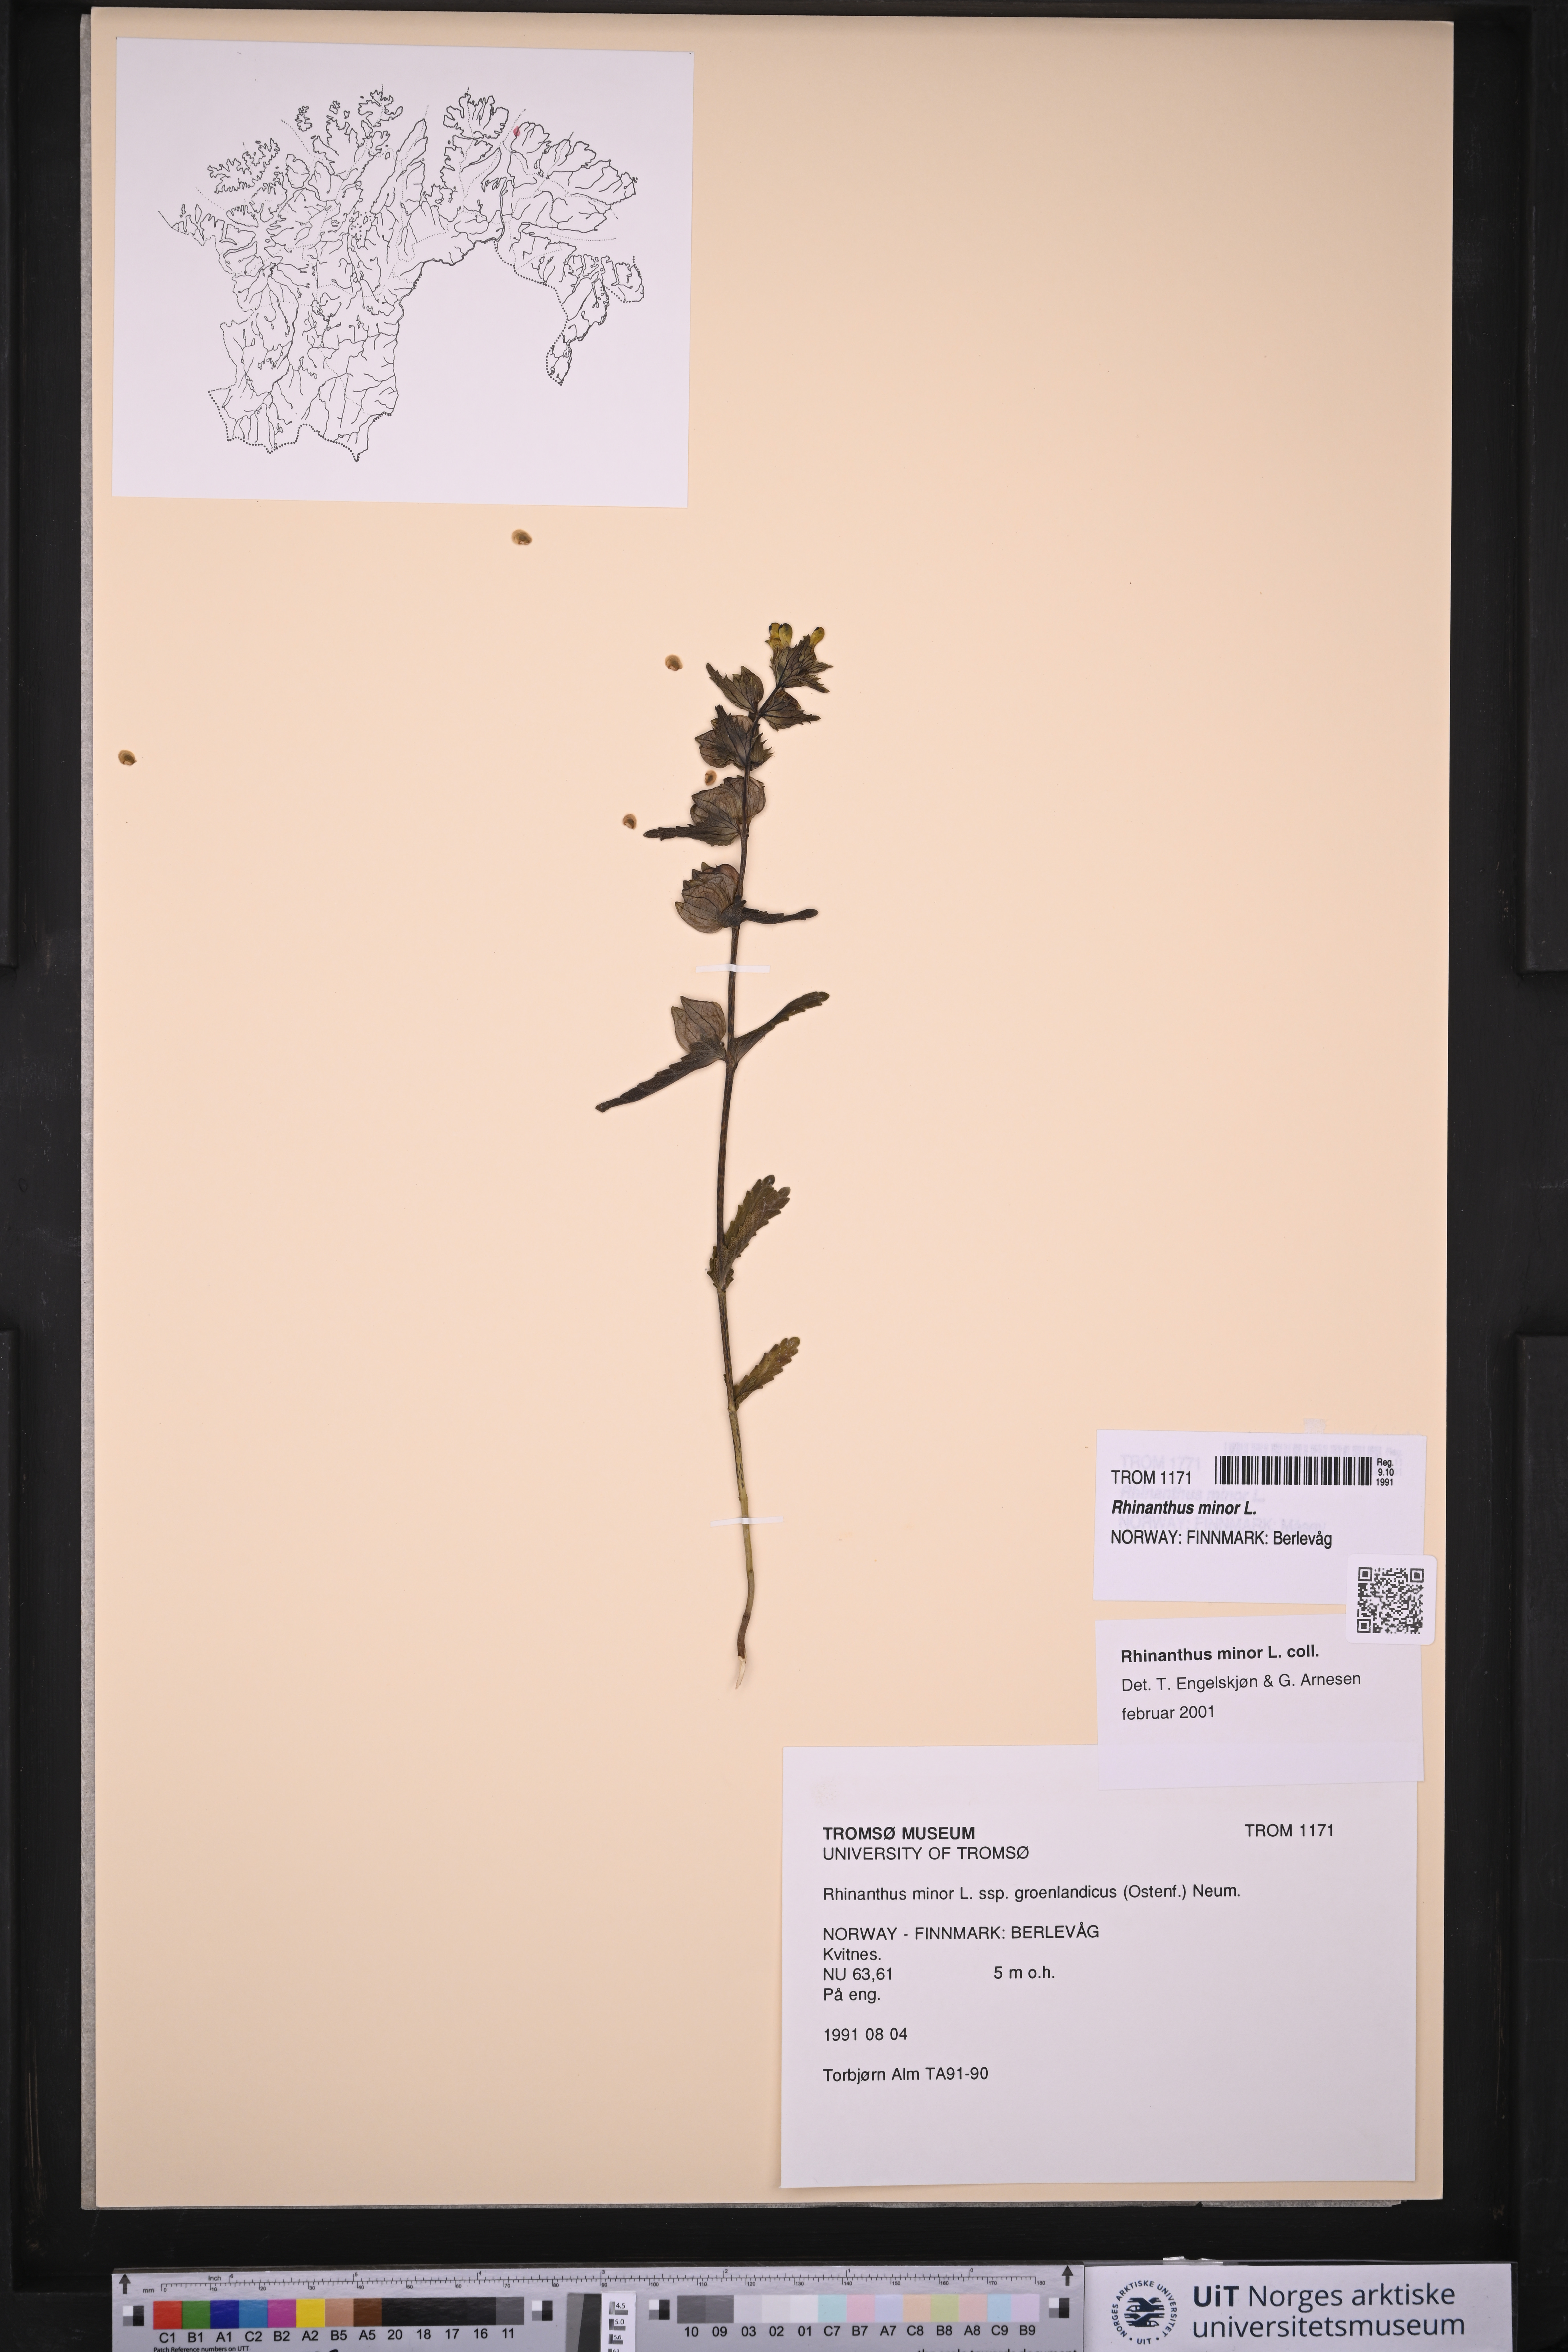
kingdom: Plantae
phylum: Tracheophyta
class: Magnoliopsida
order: Lamiales
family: Orobanchaceae
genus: Rhinanthus
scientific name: Rhinanthus minor
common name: Yellow-rattle
